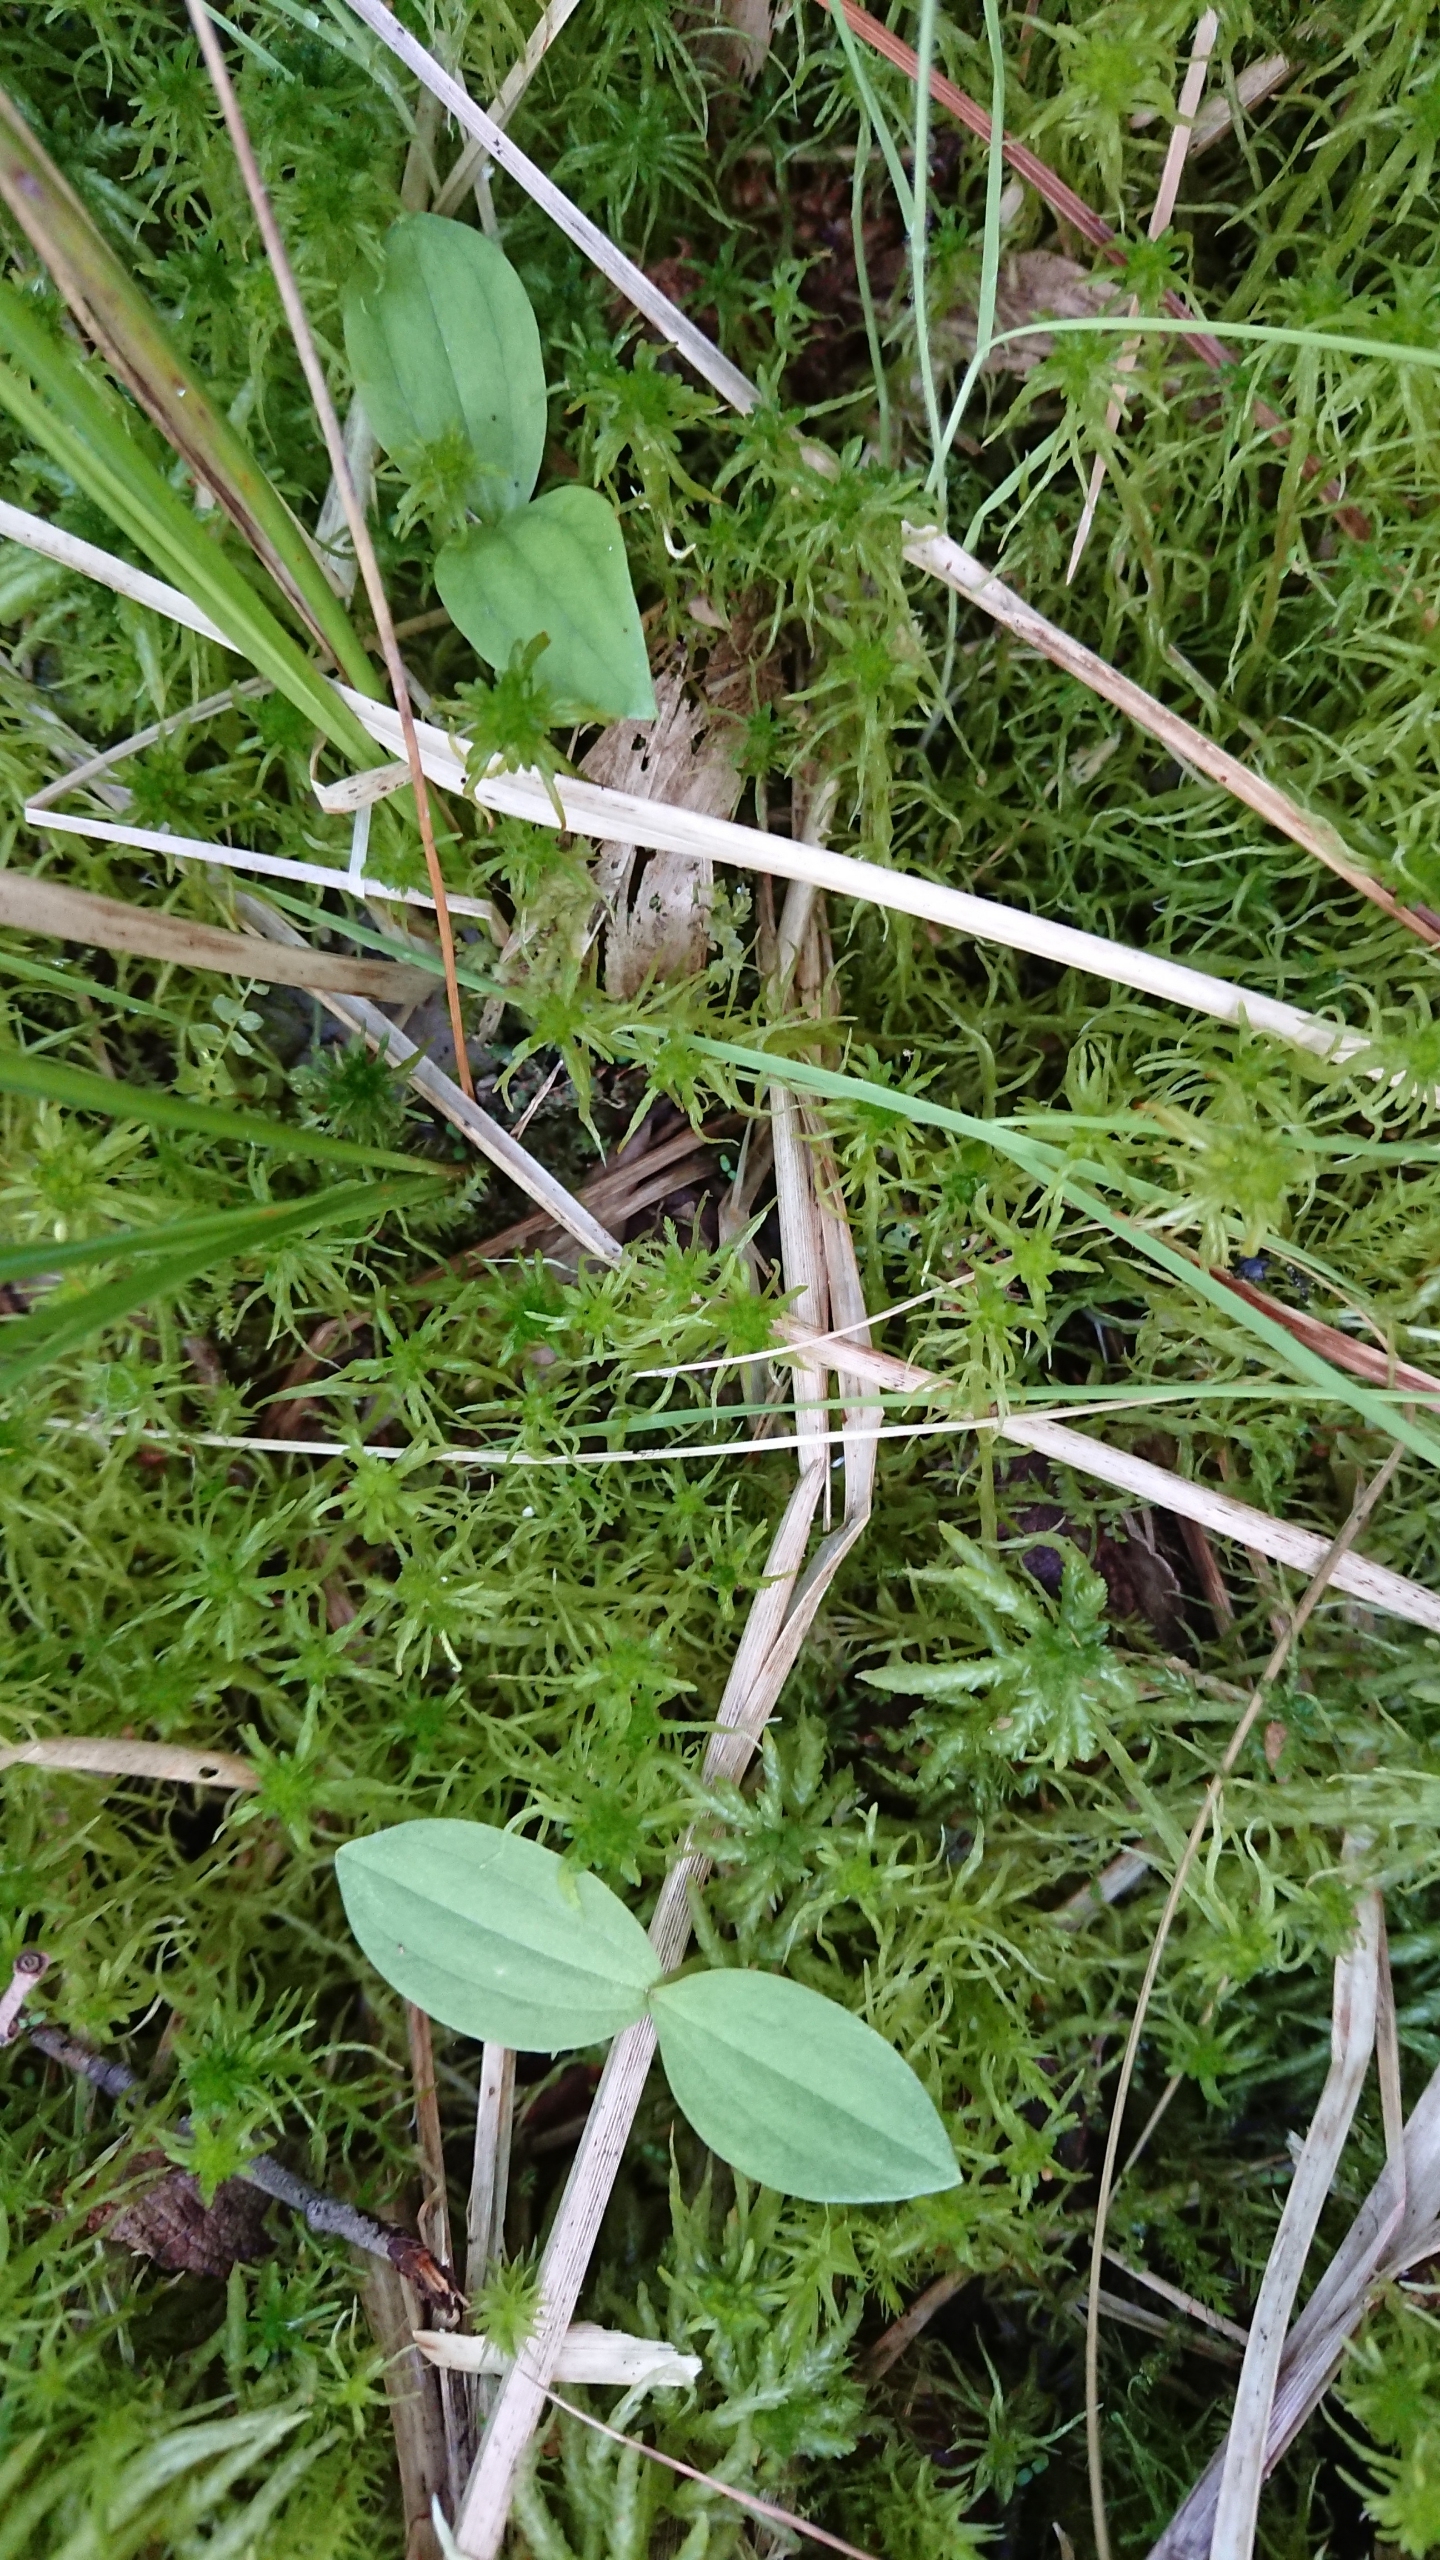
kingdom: Plantae
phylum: Tracheophyta
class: Liliopsida
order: Asparagales
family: Orchidaceae
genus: Neottia
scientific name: Neottia ovata
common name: Ægbladet fliglæbe
